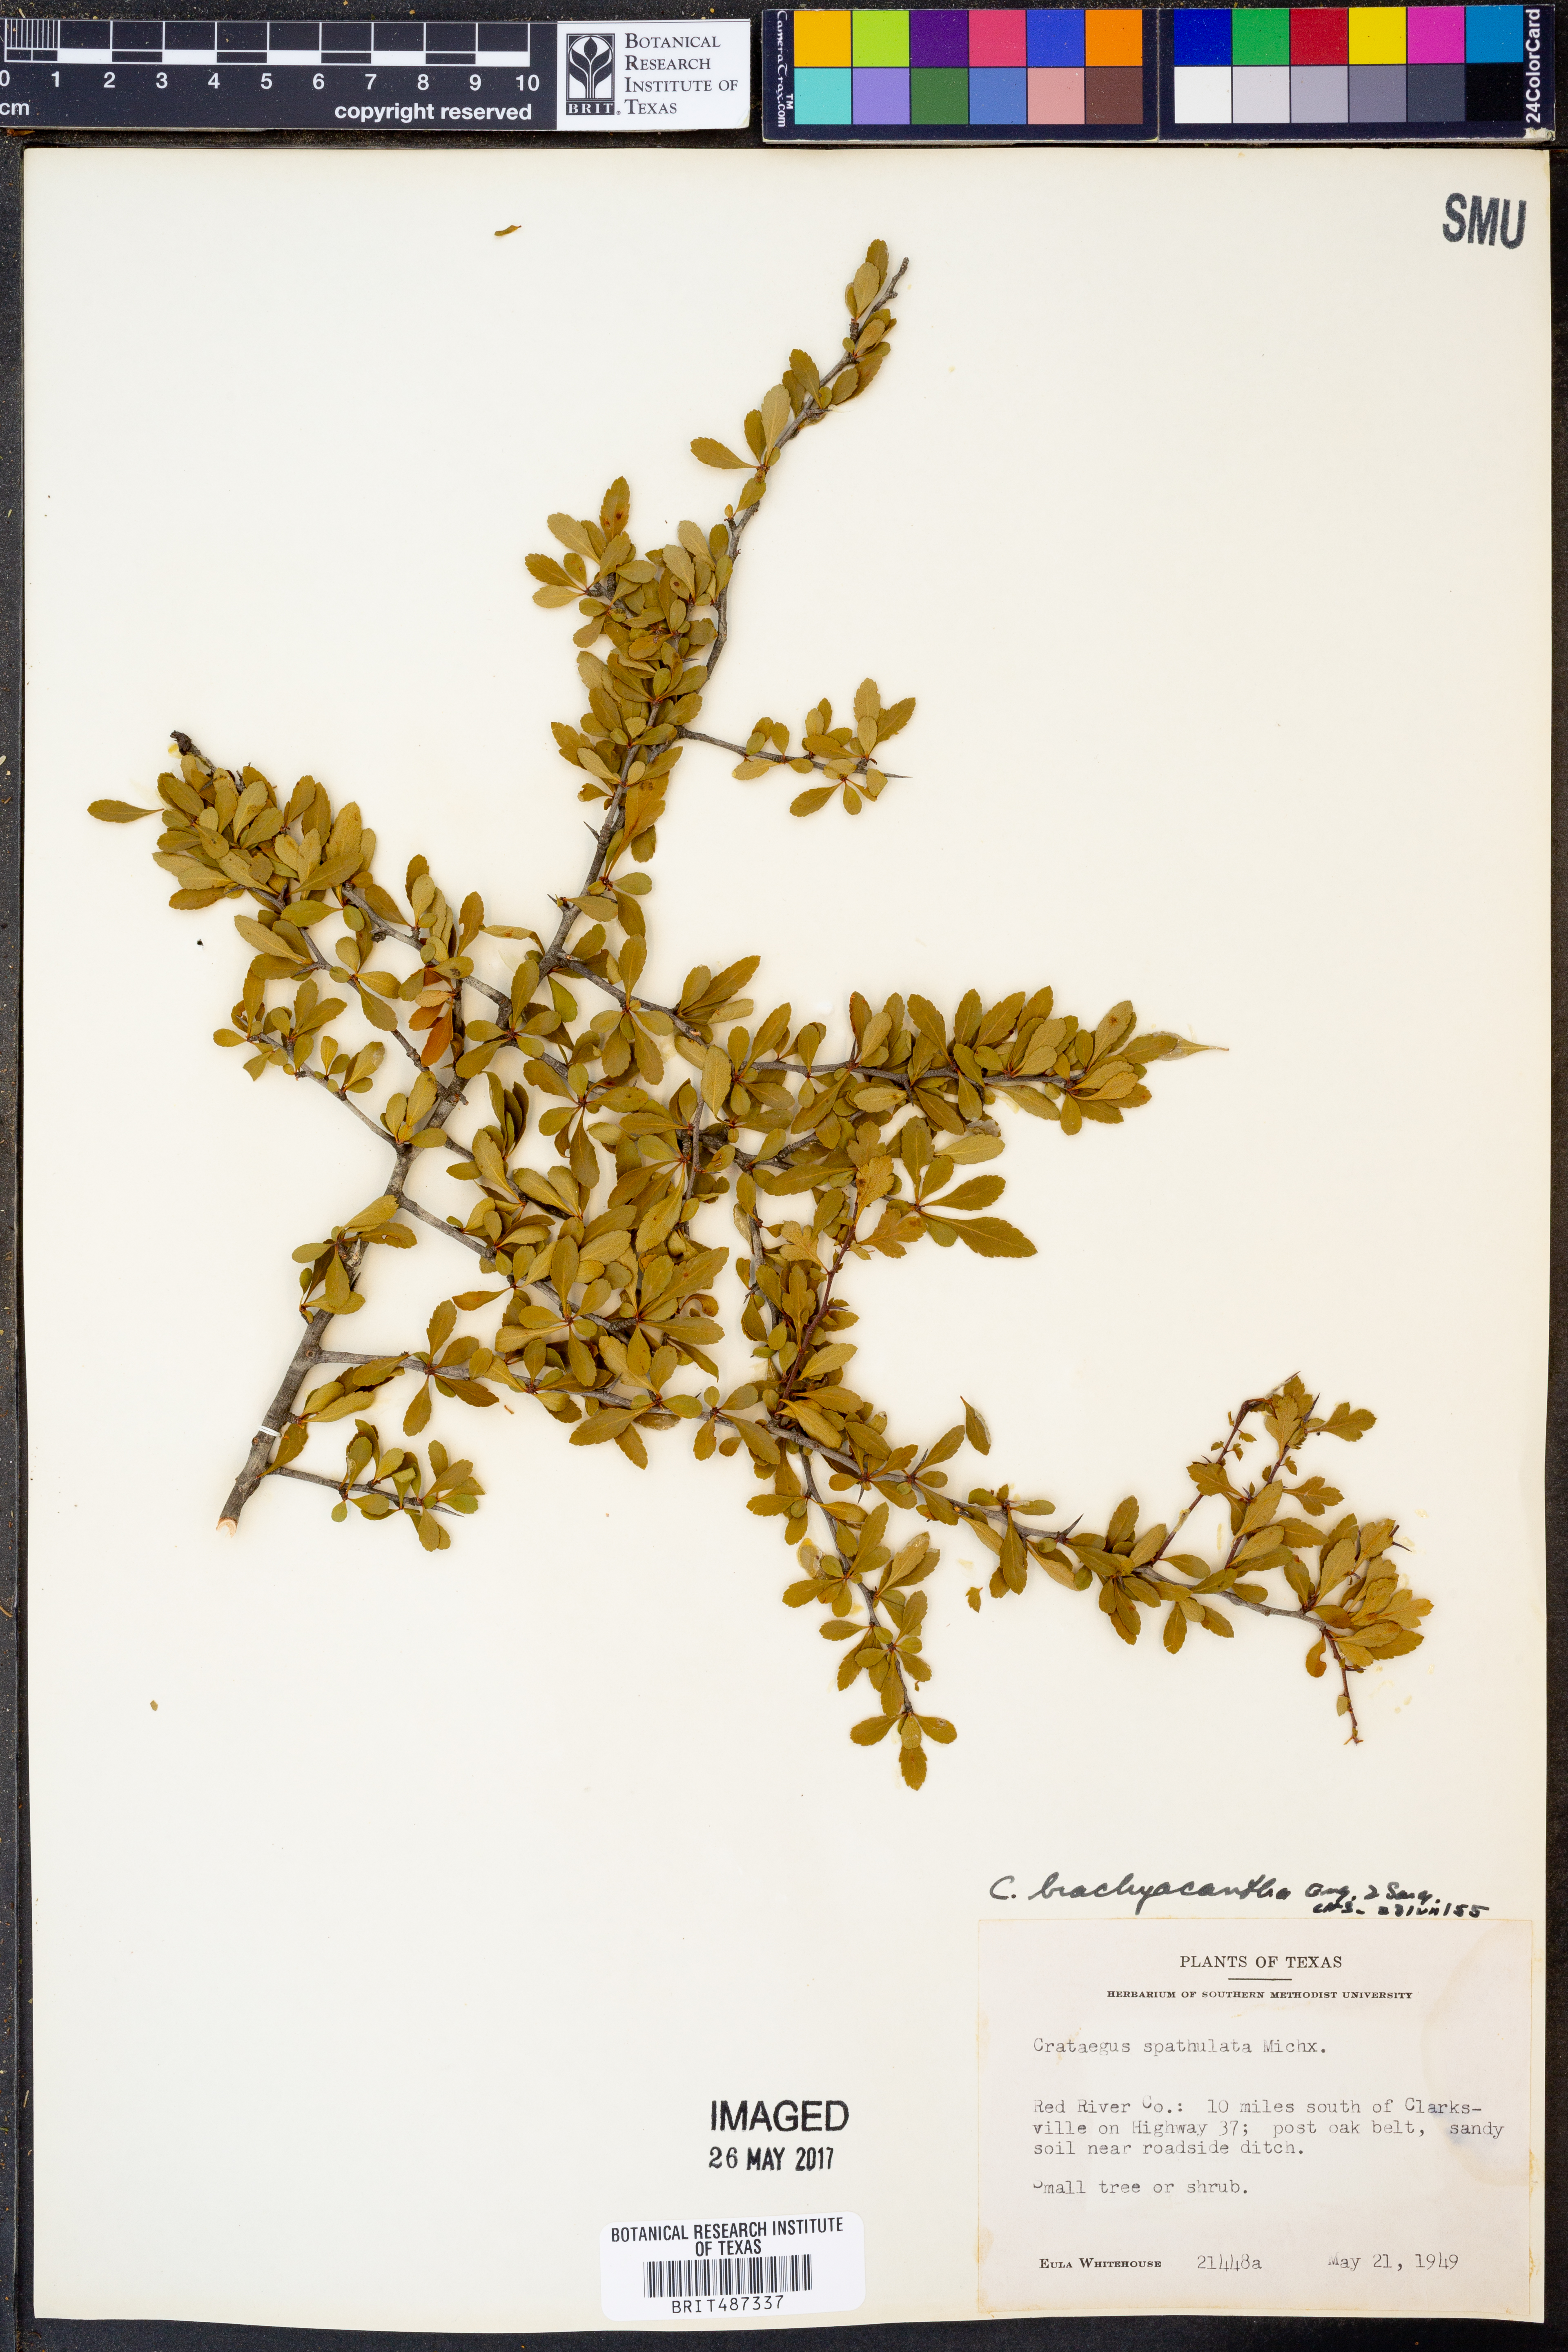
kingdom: Plantae
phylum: Tracheophyta
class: Magnoliopsida
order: Rosales
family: Rosaceae
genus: Crataegus
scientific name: Crataegus brachyacantha
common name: Blueberry-hawthorn
